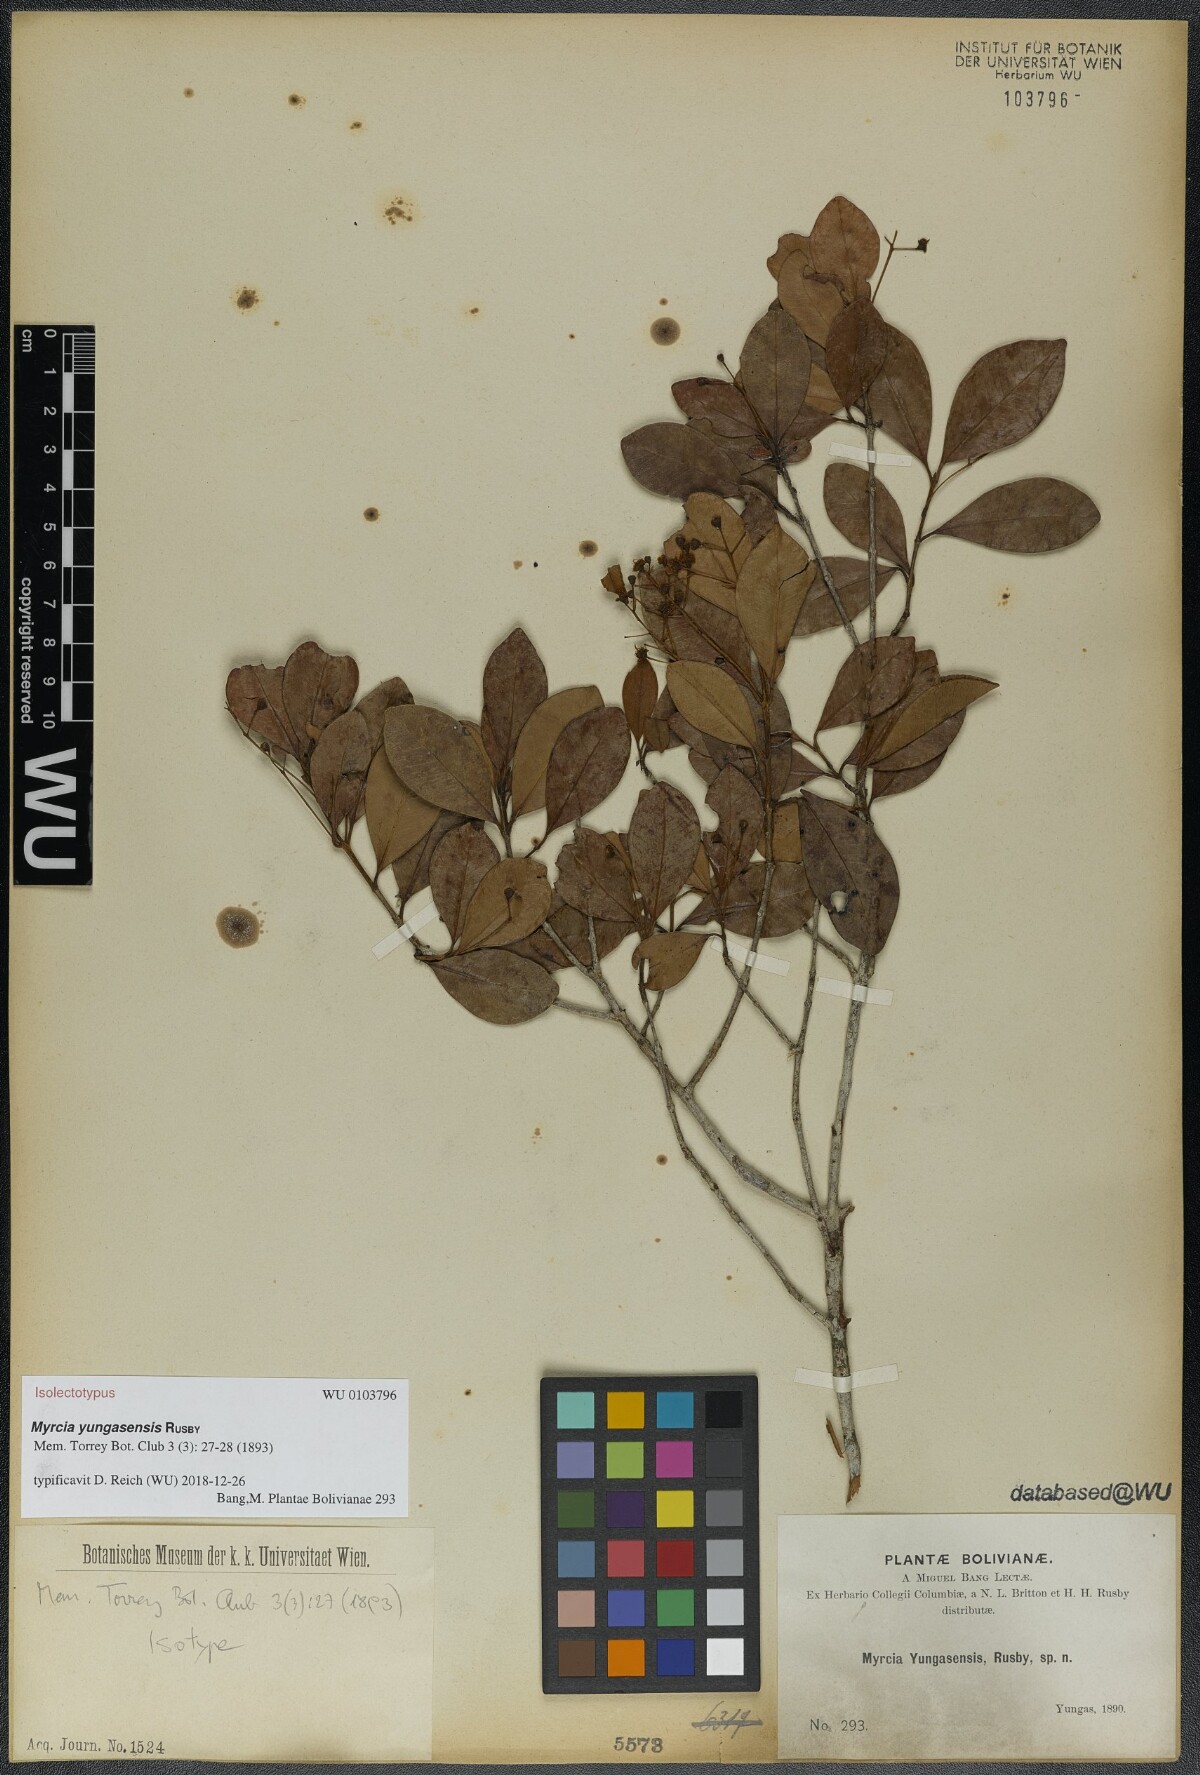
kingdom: Plantae
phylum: Tracheophyta
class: Magnoliopsida
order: Myrtales
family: Myrtaceae
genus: Myrcia
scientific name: Myrcia guianensis
